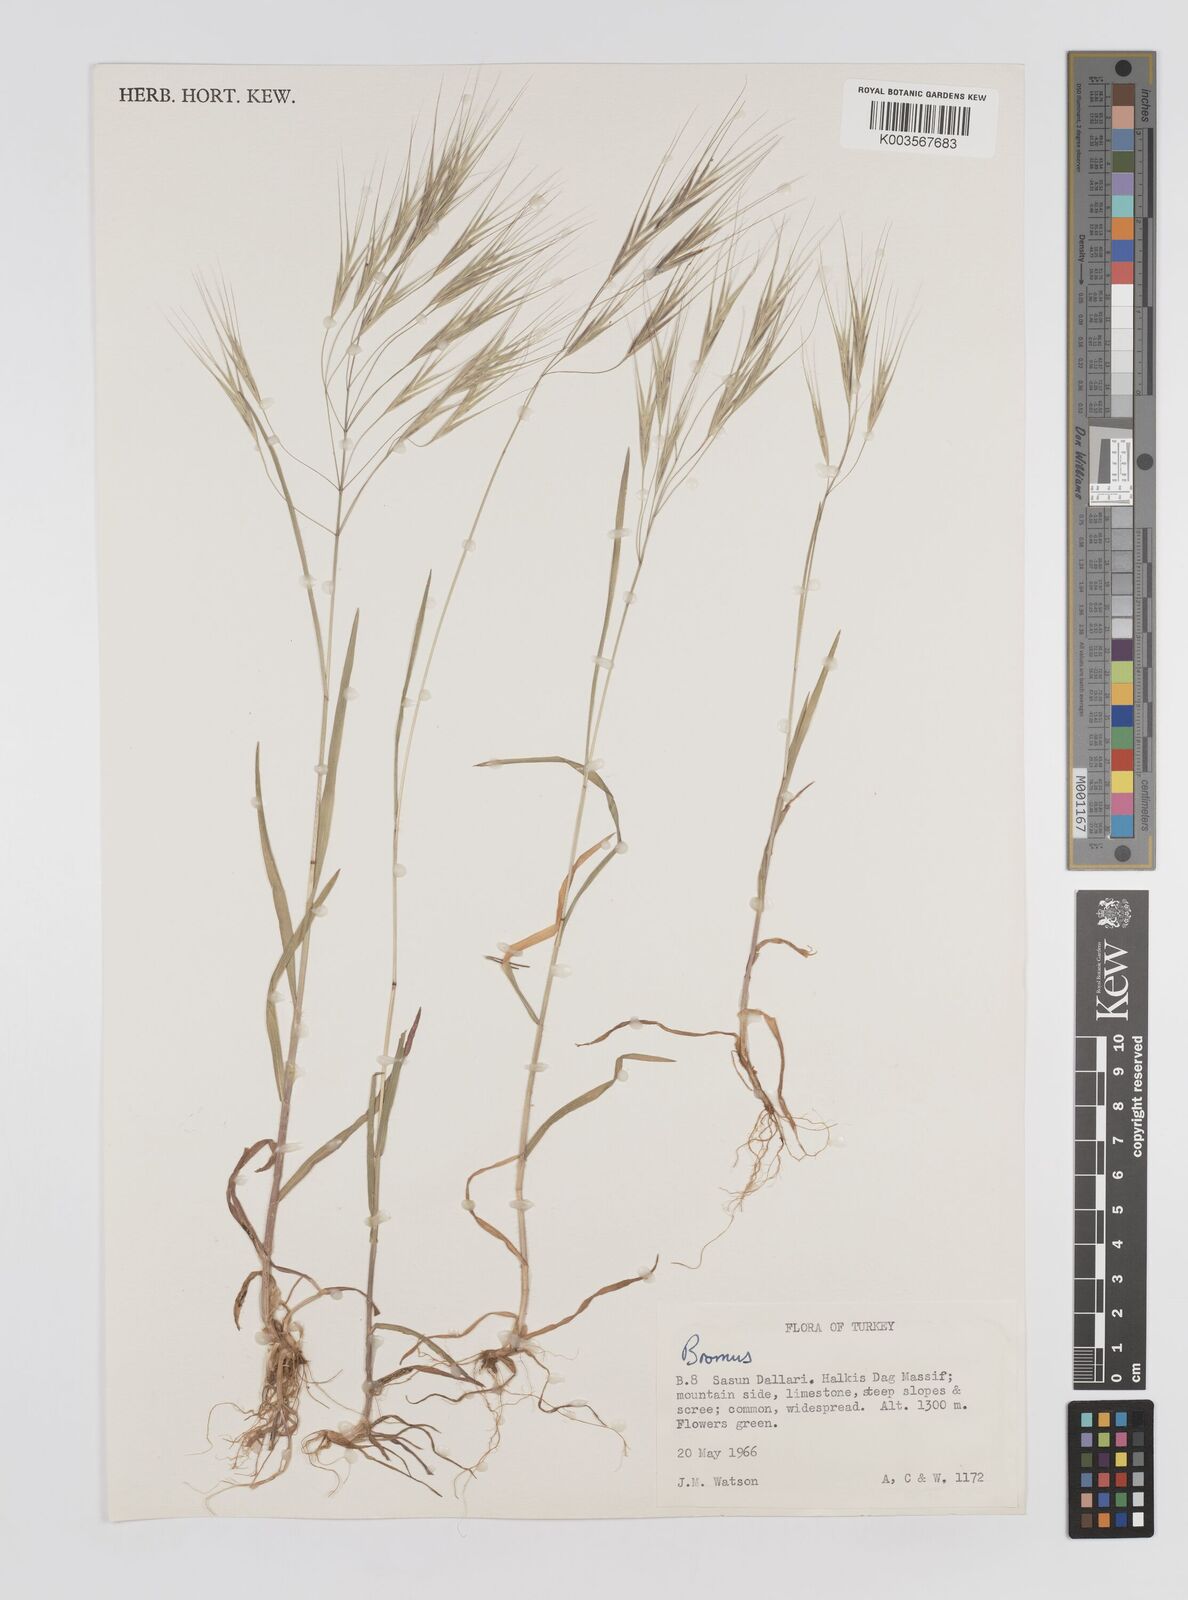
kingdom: Plantae
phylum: Tracheophyta
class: Liliopsida
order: Poales
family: Poaceae
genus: Bromus
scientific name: Bromus
